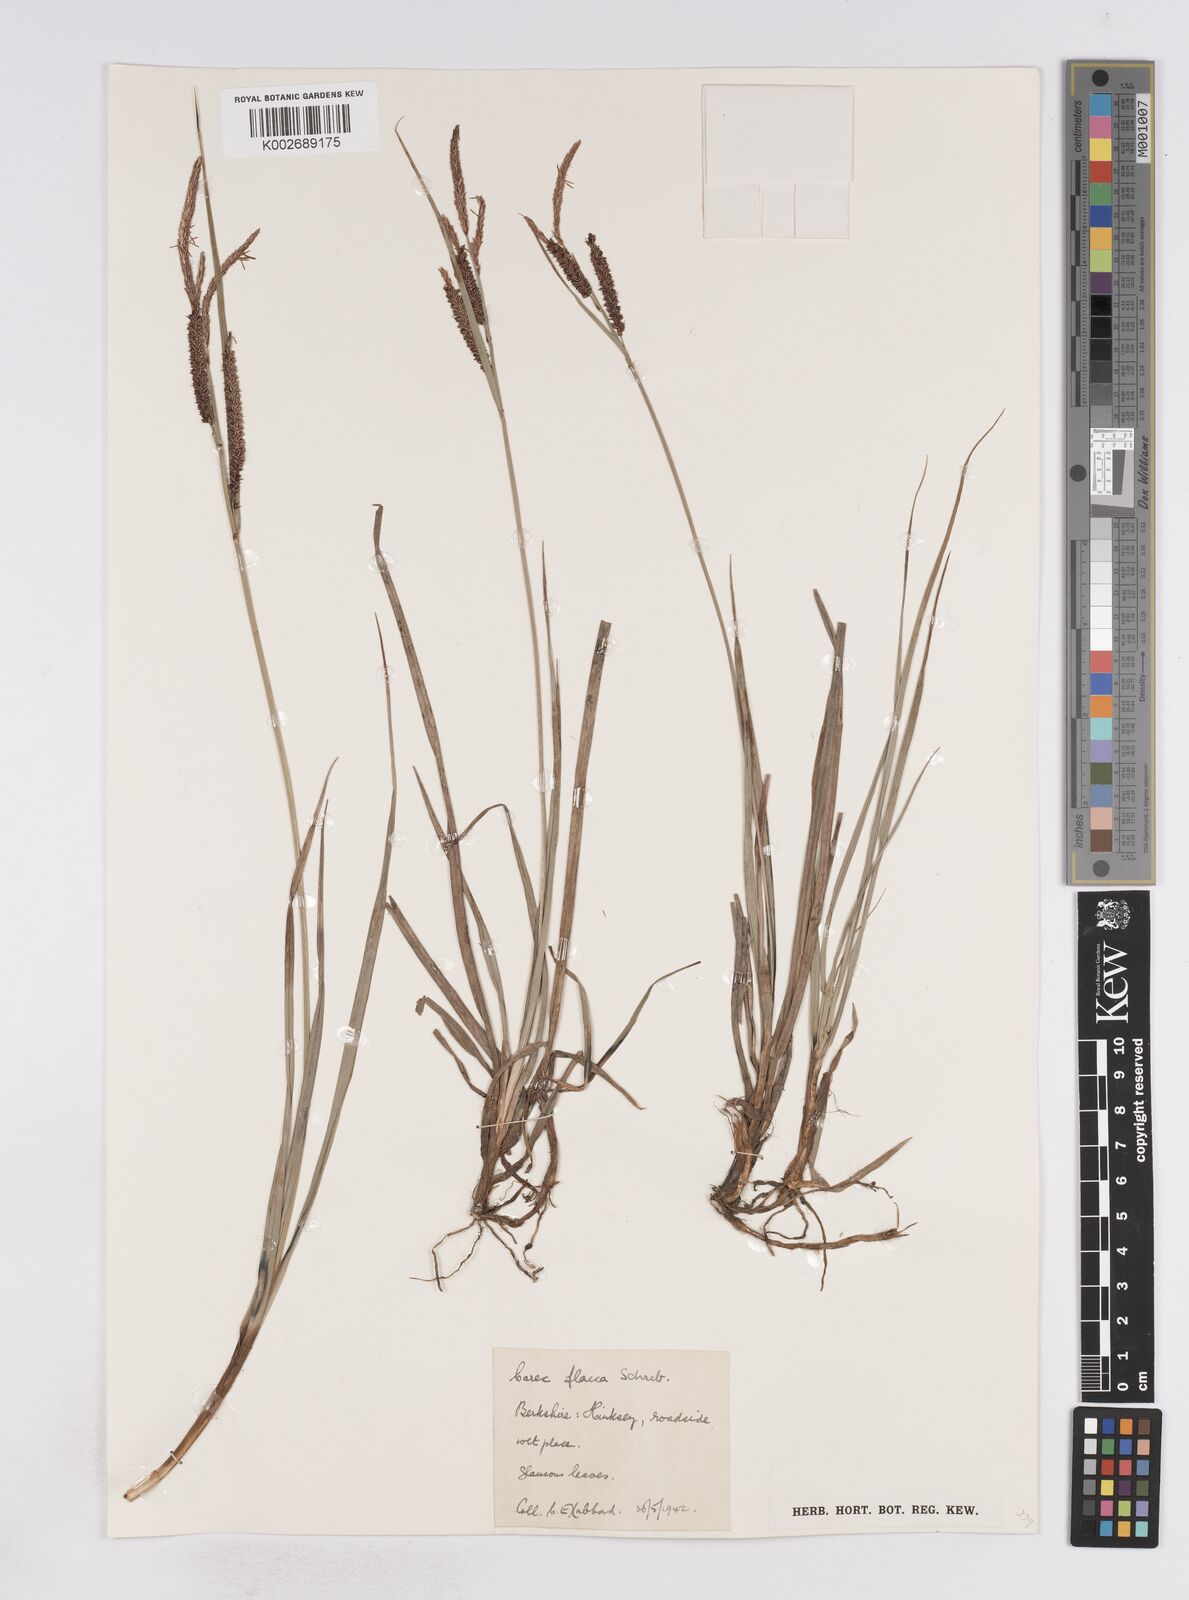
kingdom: Plantae
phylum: Tracheophyta
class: Liliopsida
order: Poales
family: Cyperaceae
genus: Carex
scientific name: Carex flacca
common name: Glaucous sedge
